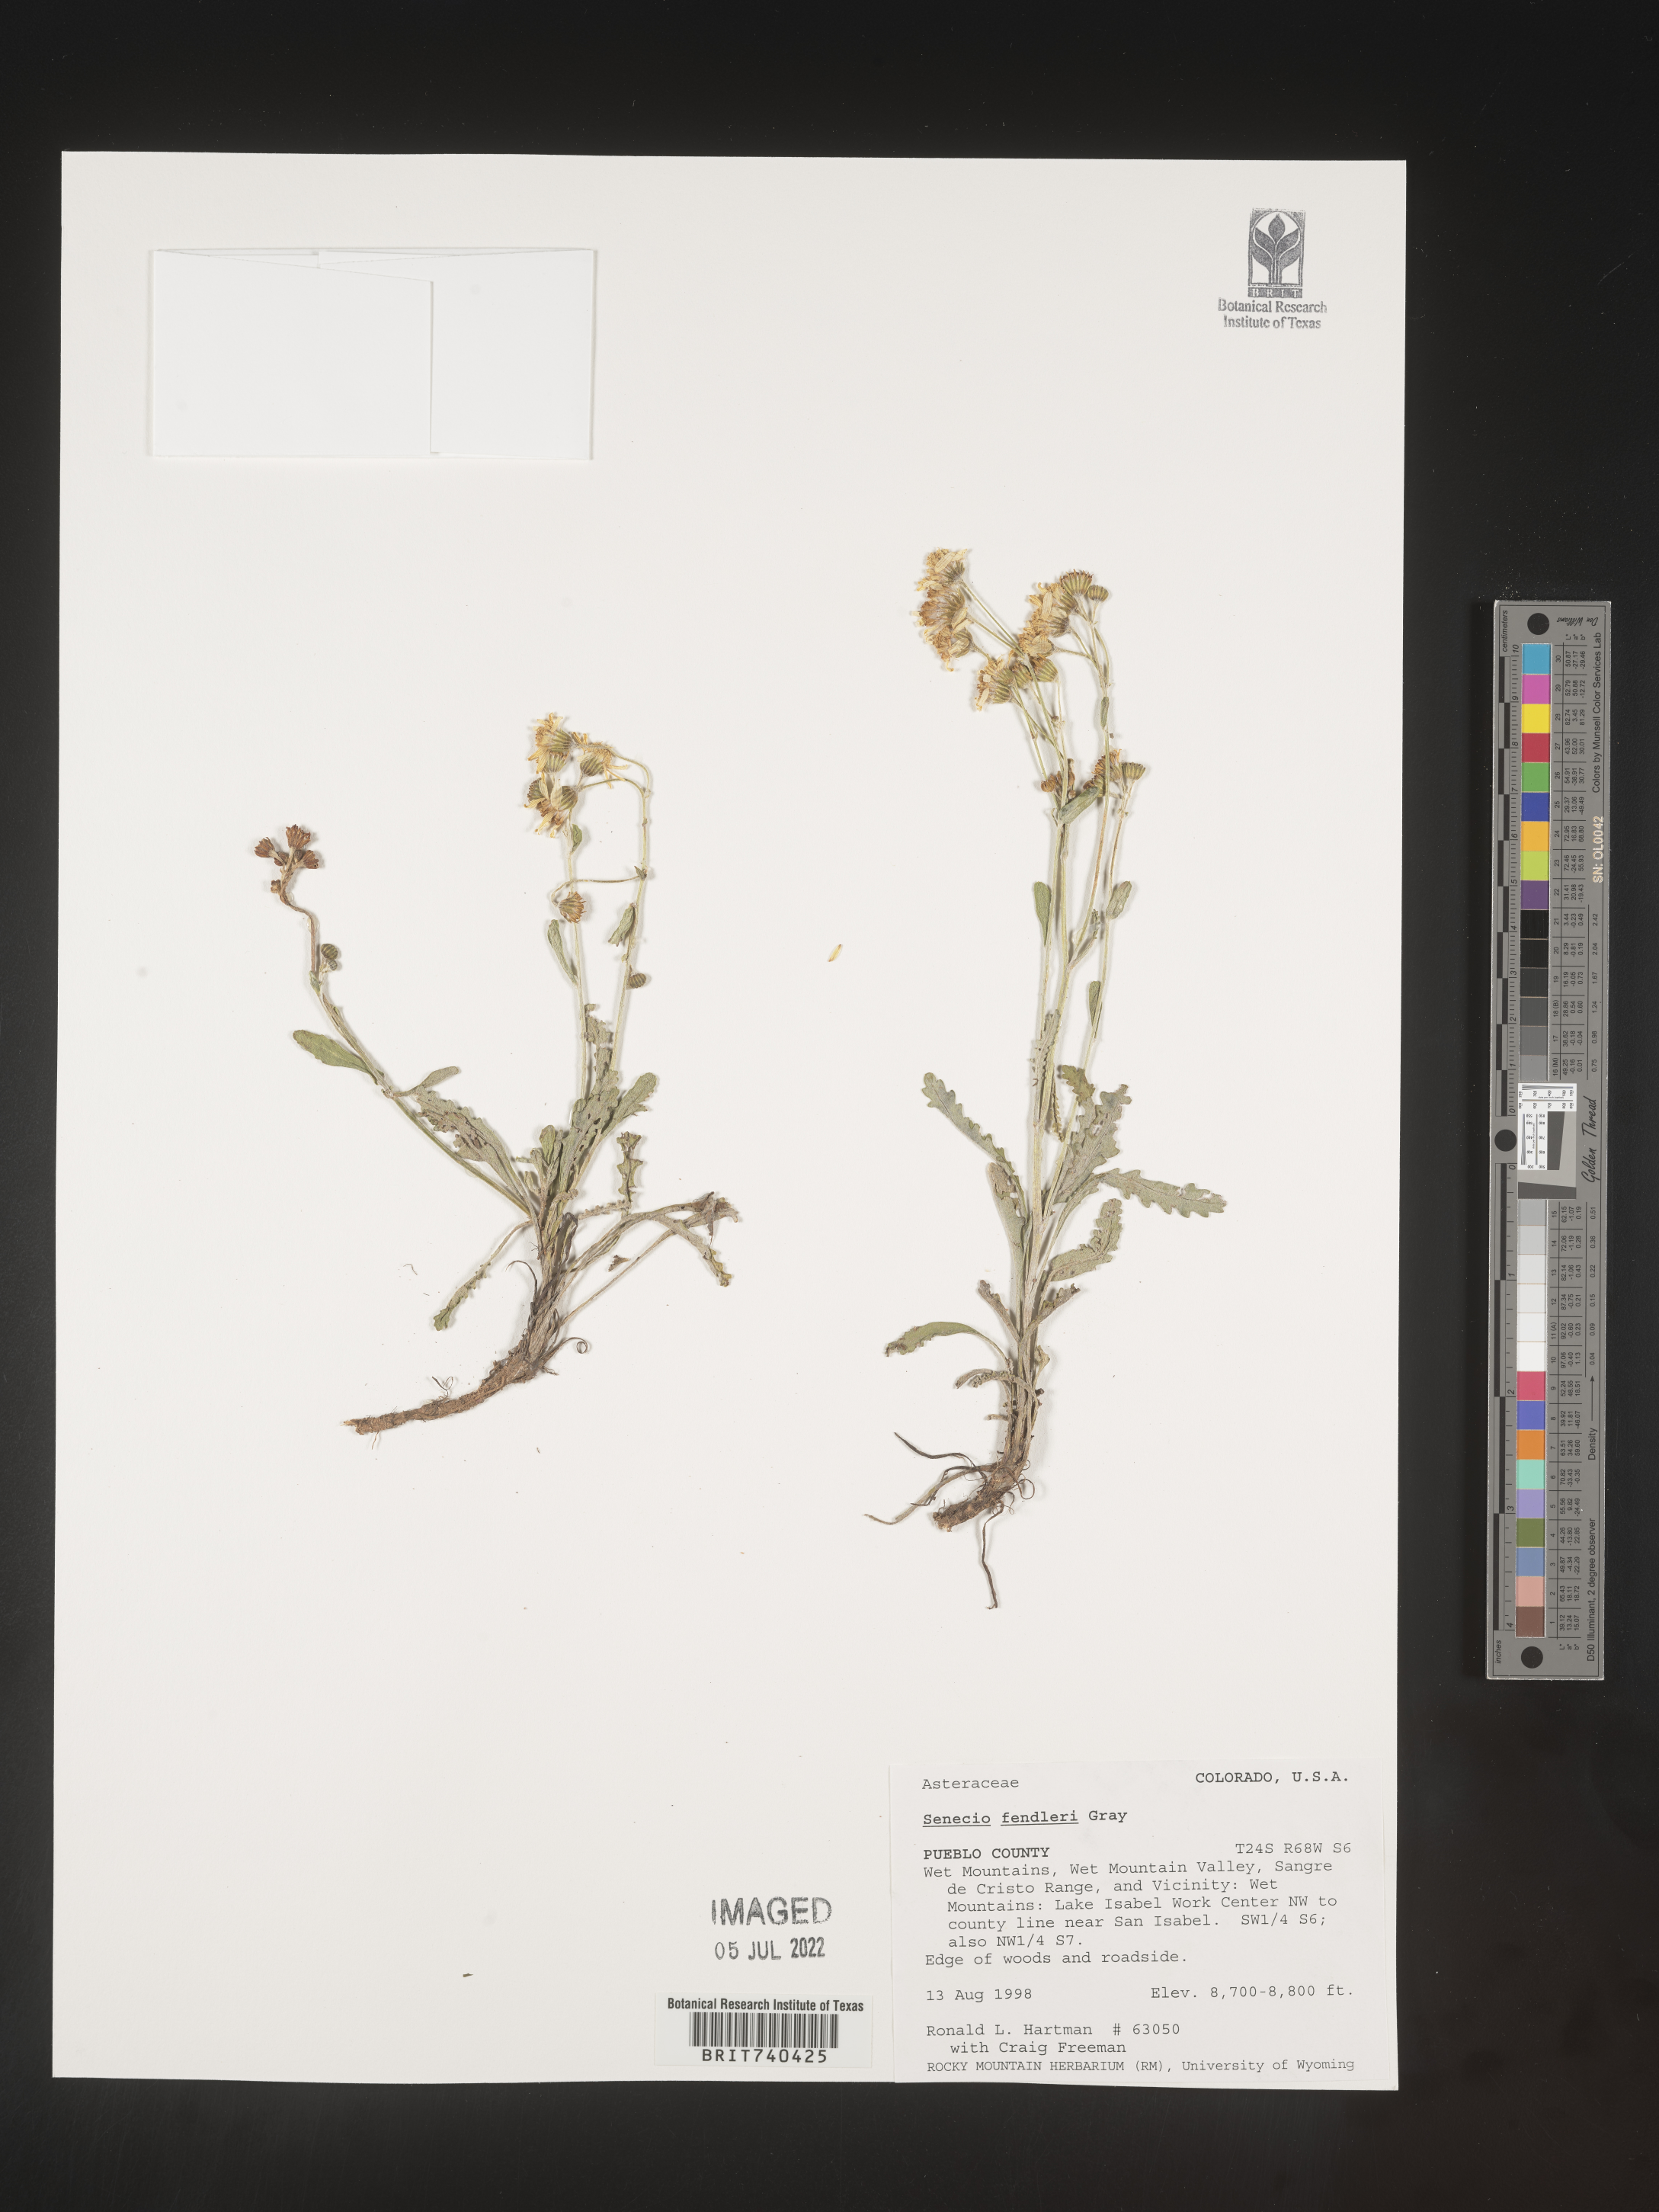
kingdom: Plantae
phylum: Tracheophyta
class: Magnoliopsida
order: Asterales
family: Asteraceae
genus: Packera
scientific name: Packera fendleri
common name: Notch-leaf butterweed
